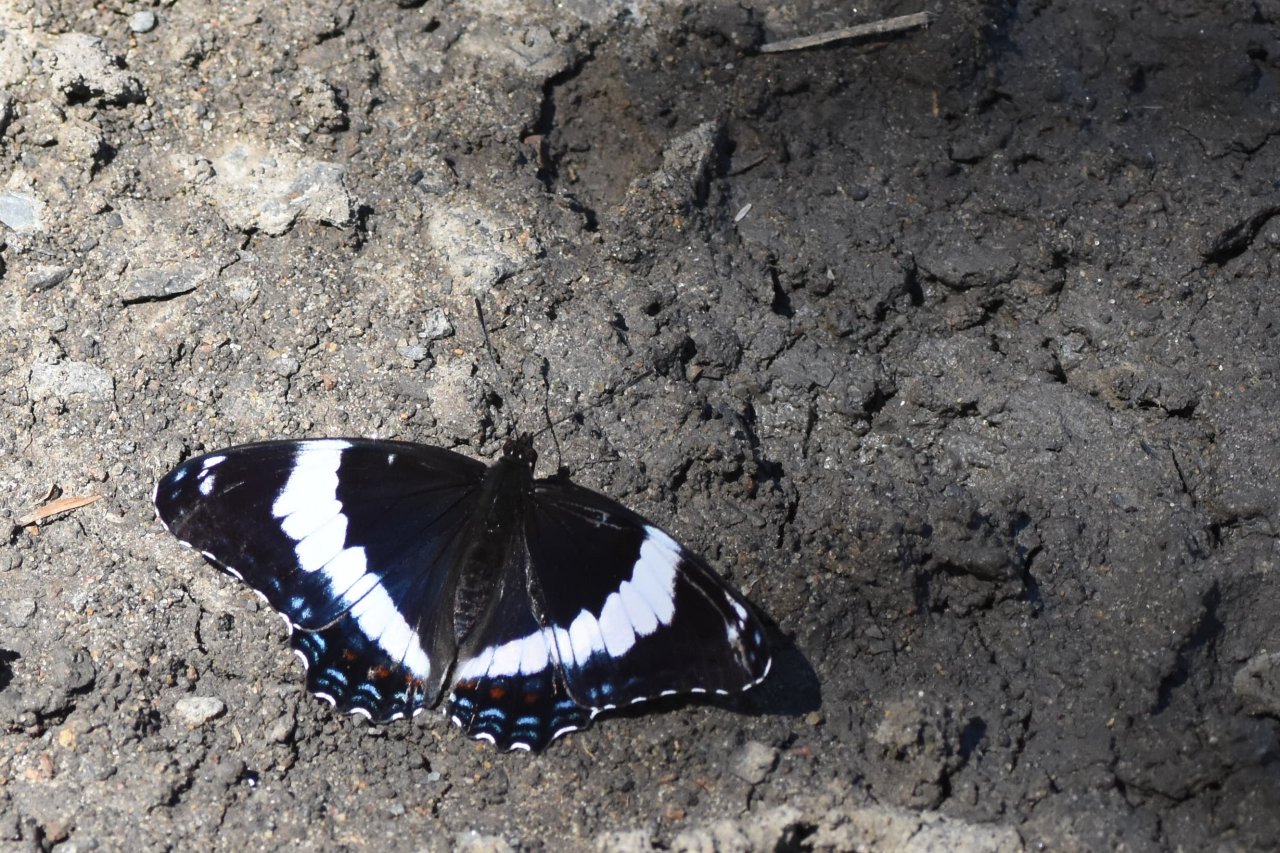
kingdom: Animalia
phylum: Arthropoda
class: Insecta
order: Lepidoptera
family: Nymphalidae
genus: Limenitis
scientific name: Limenitis arthemis
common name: Red-spotted Admiral
